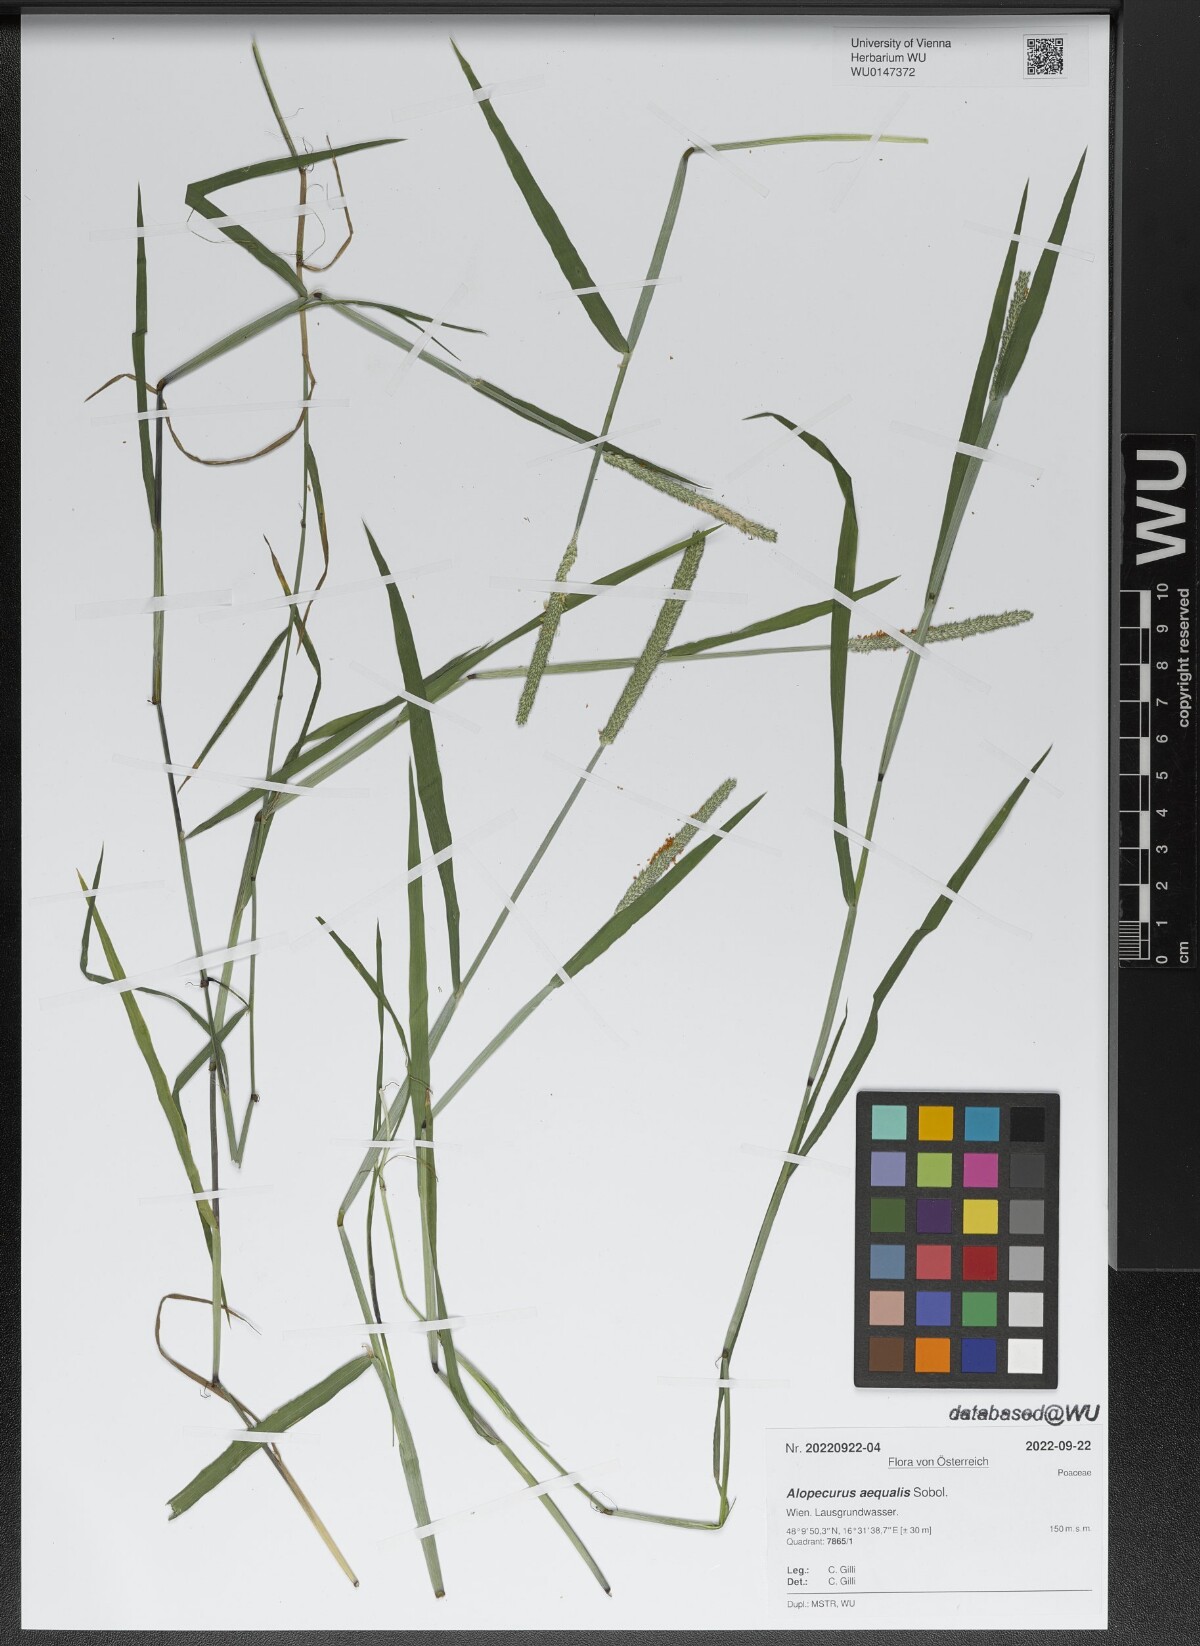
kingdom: Plantae
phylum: Tracheophyta
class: Liliopsida
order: Poales
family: Poaceae
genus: Alopecurus
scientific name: Alopecurus aequalis
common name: Orange foxtail
